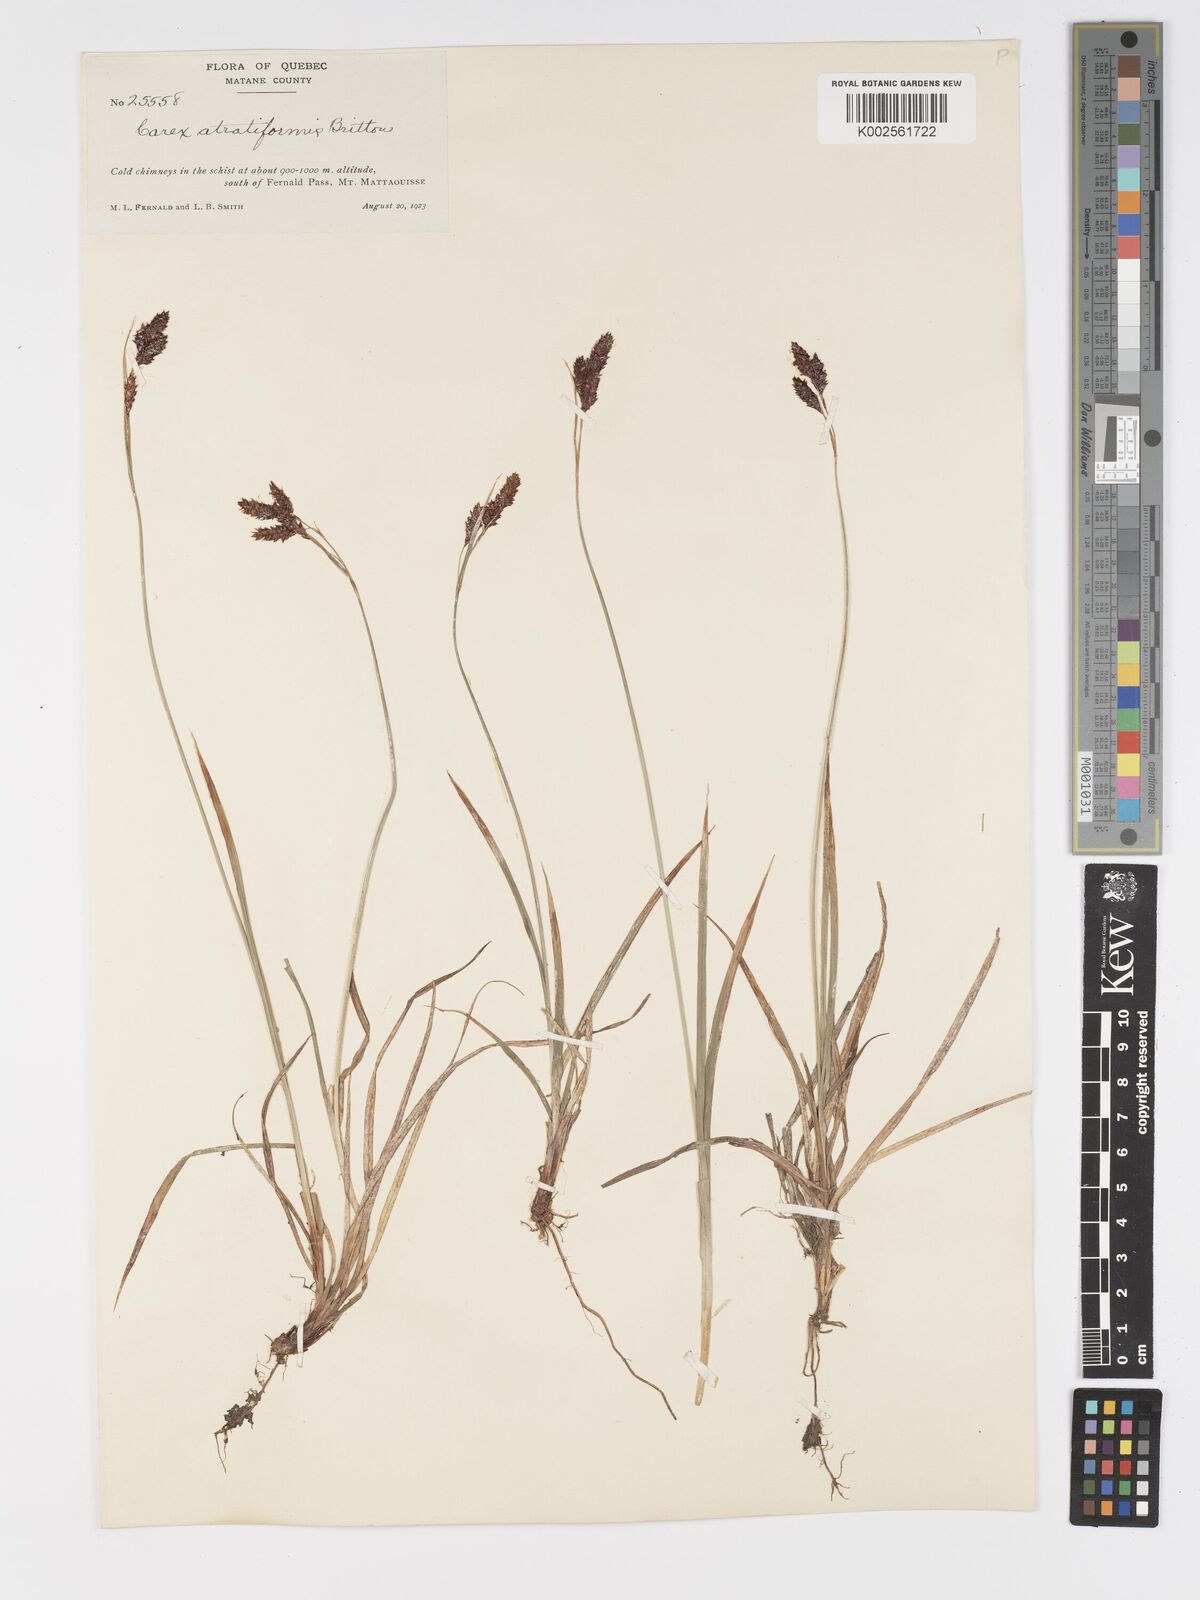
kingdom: Plantae
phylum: Tracheophyta
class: Liliopsida
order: Poales
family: Cyperaceae
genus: Carex
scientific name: Carex atratiformis
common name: Black sedge
